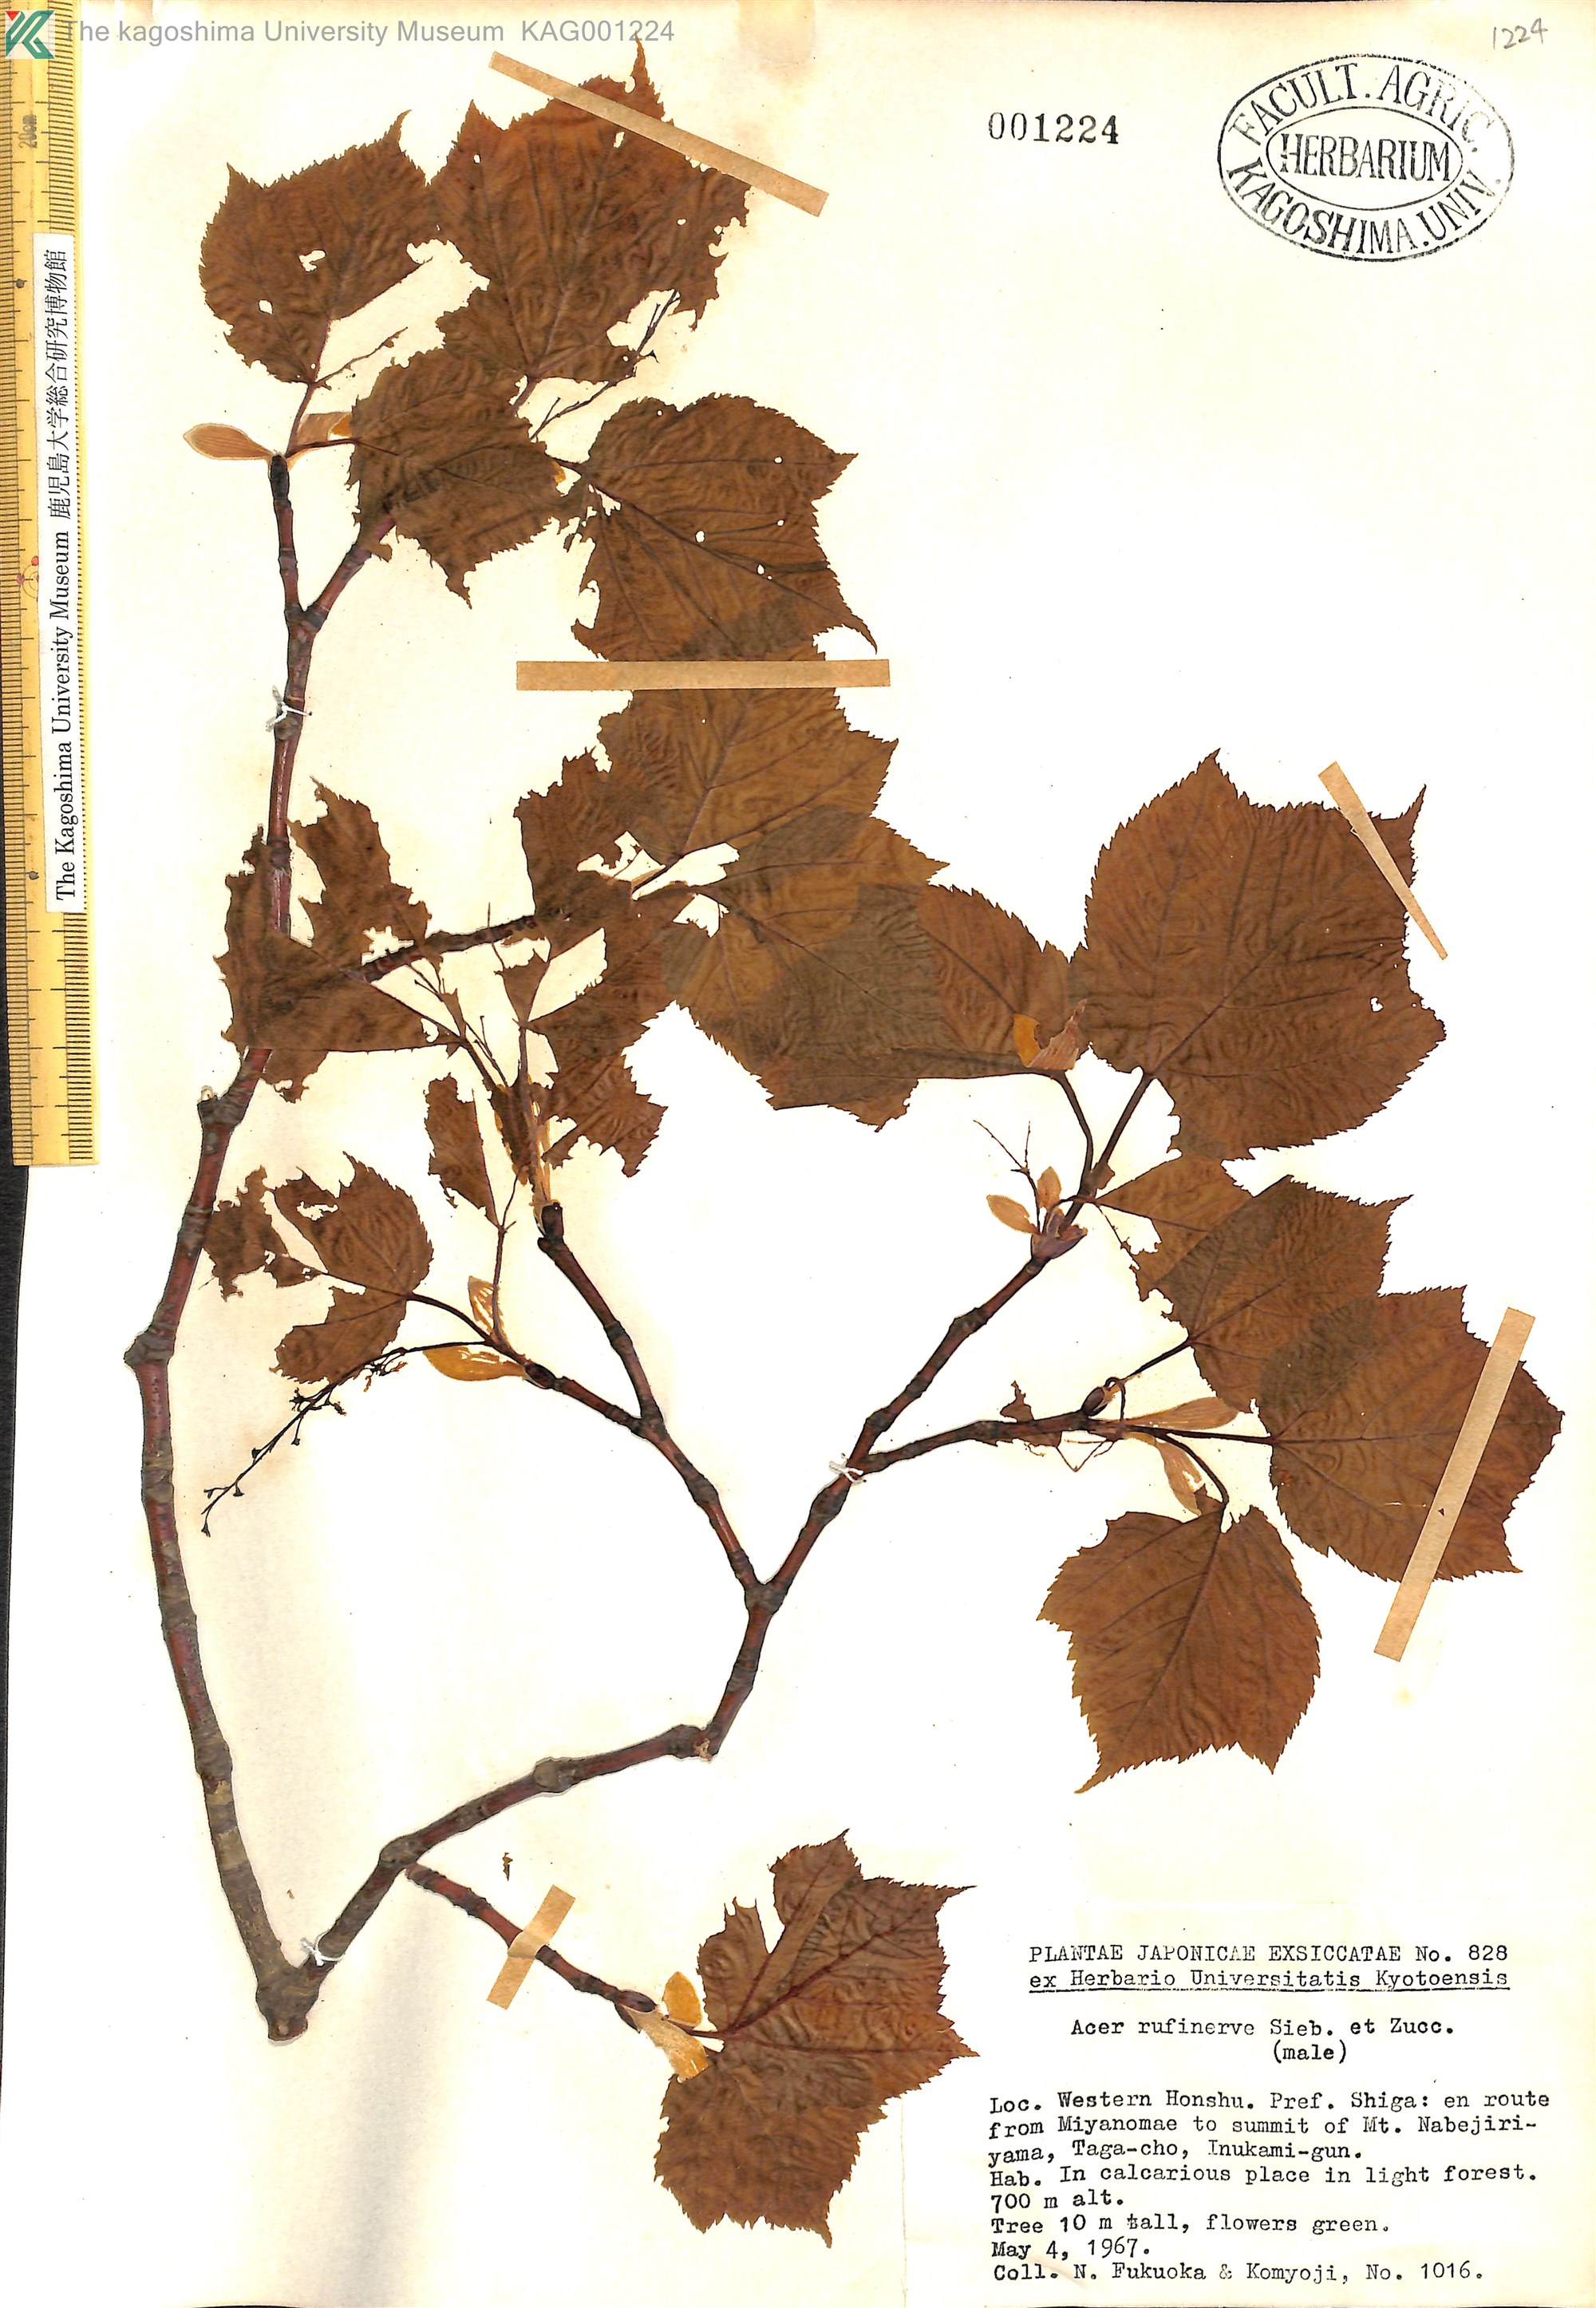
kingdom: Plantae
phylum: Tracheophyta
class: Magnoliopsida
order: Sapindales
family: Sapindaceae
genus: Acer
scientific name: Acer rufinerve
